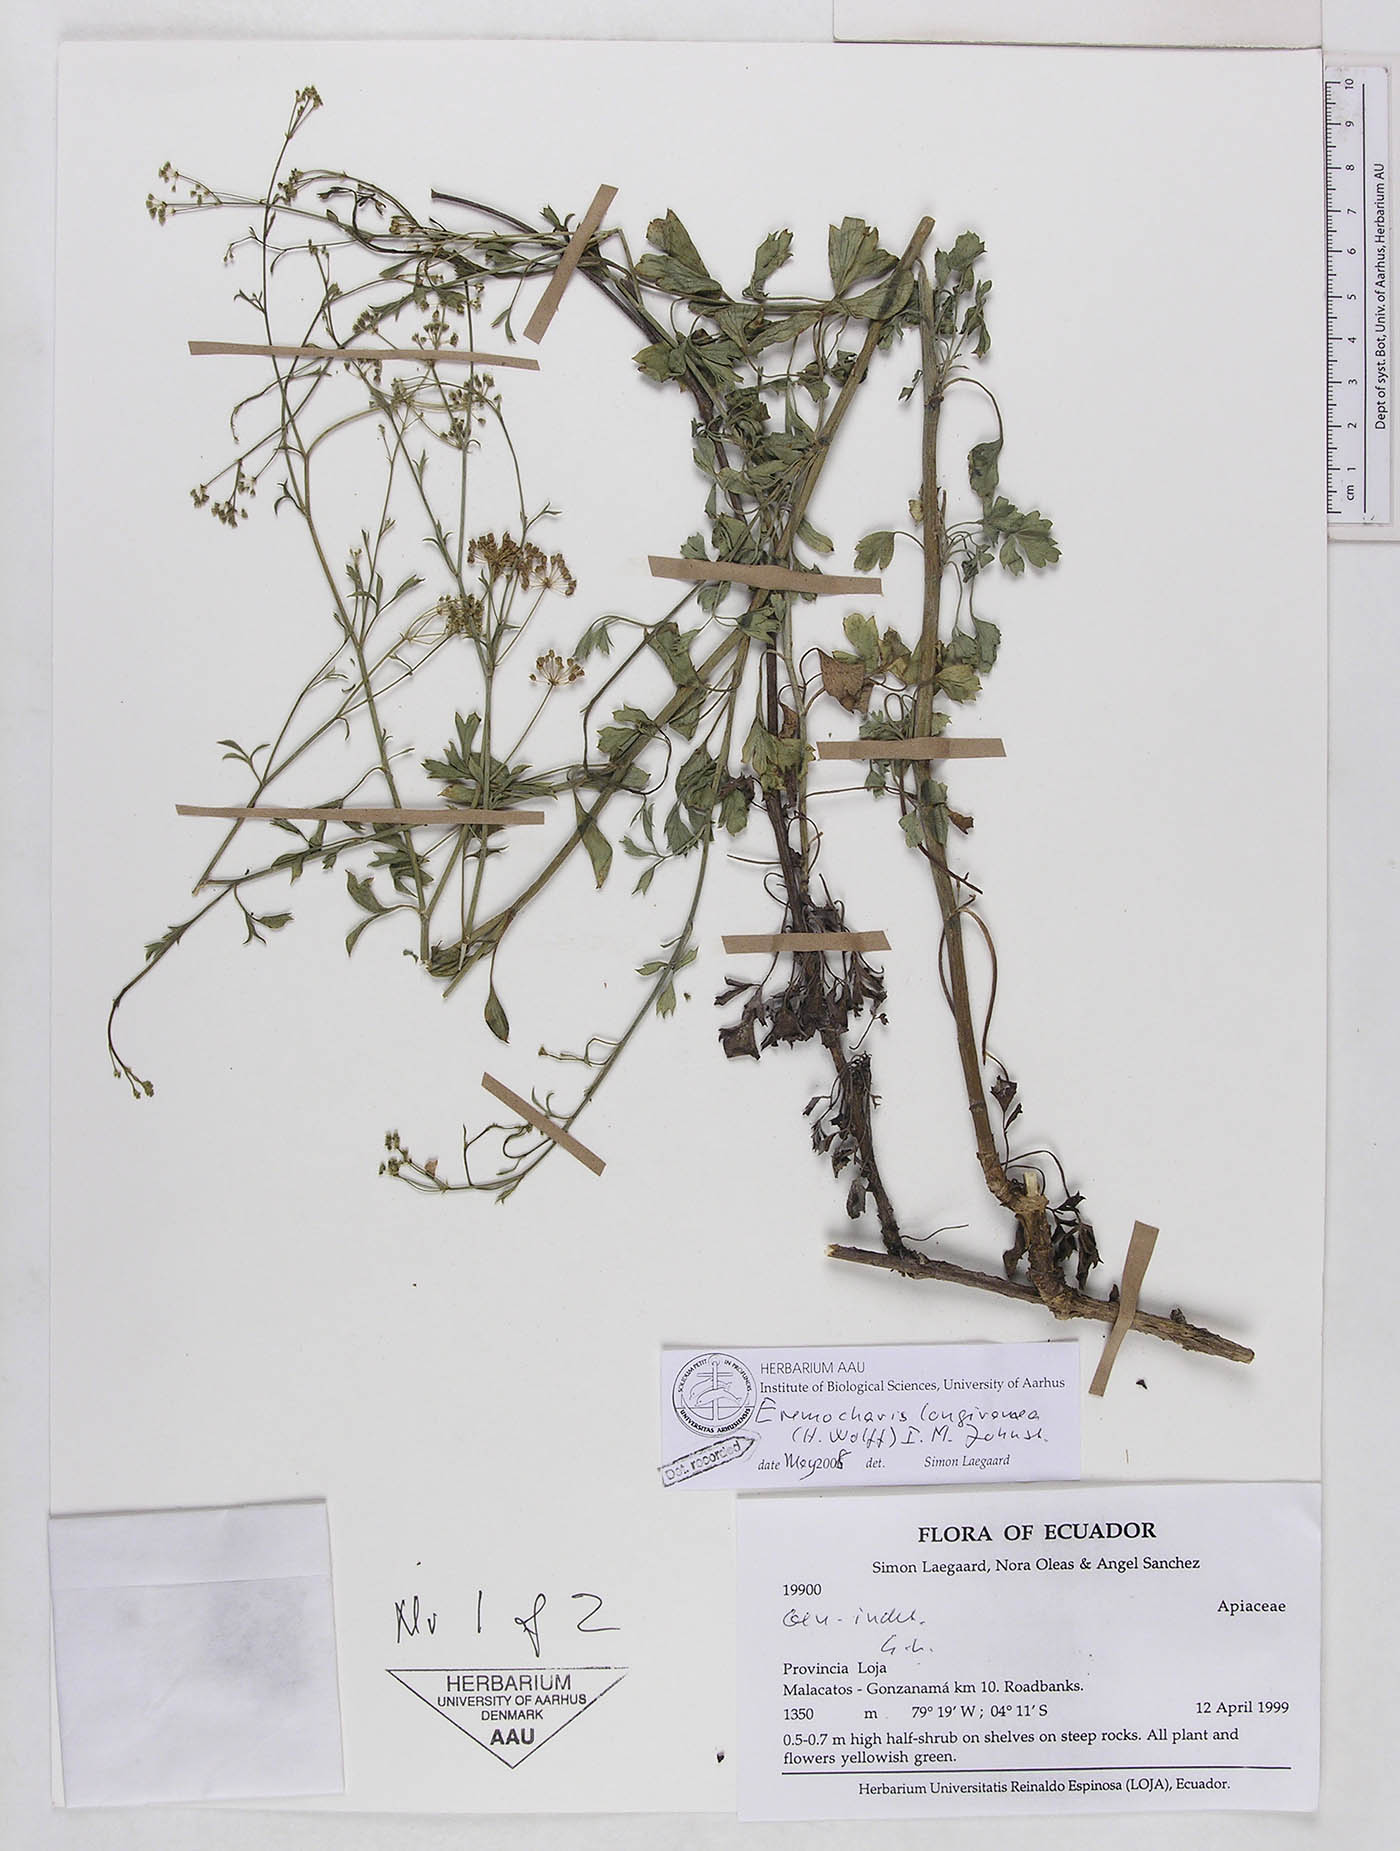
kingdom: Plantae
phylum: Tracheophyta
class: Magnoliopsida
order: Apiales
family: Apiaceae
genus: Eremocharis
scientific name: Eremocharis longiramea
